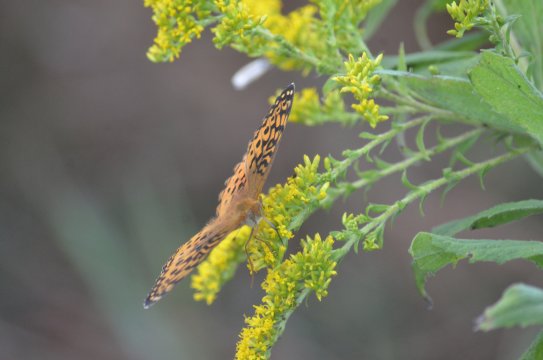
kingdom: Animalia
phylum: Arthropoda
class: Insecta
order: Lepidoptera
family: Nymphalidae
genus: Speyeria
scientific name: Speyeria aphrodite
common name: Aphrodite Fritillary
